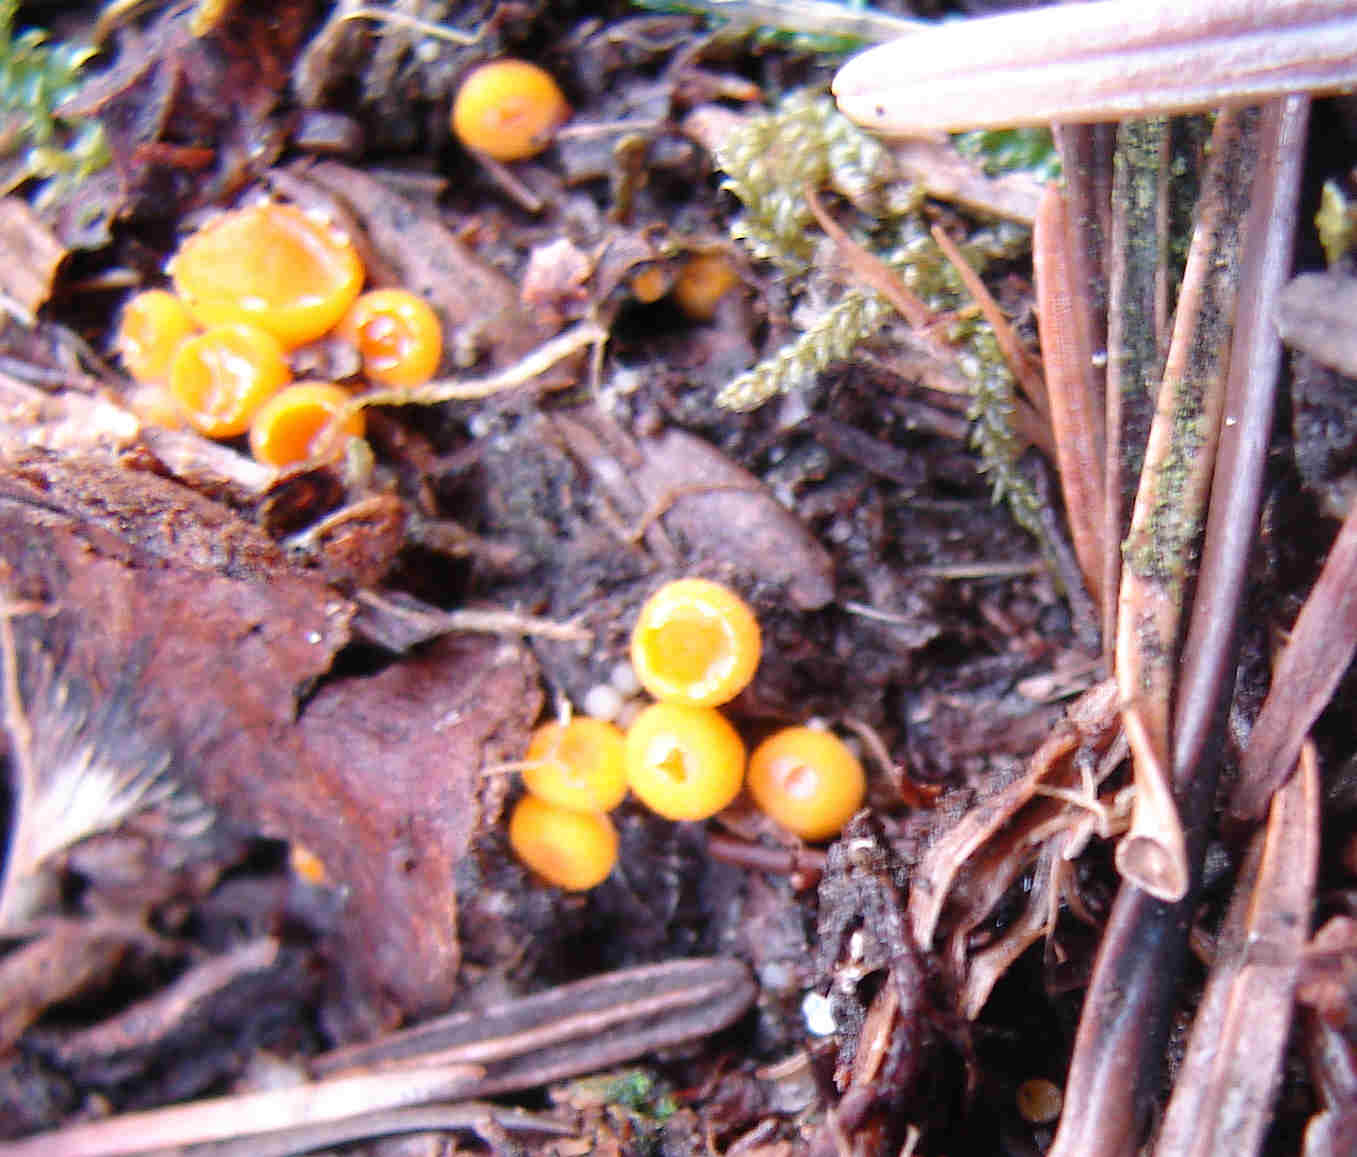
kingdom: Fungi
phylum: Ascomycota
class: Pezizomycetes
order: Pezizales
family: Pyronemataceae
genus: Byssonectria
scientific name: Byssonectria terrestris
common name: hjortebæger
